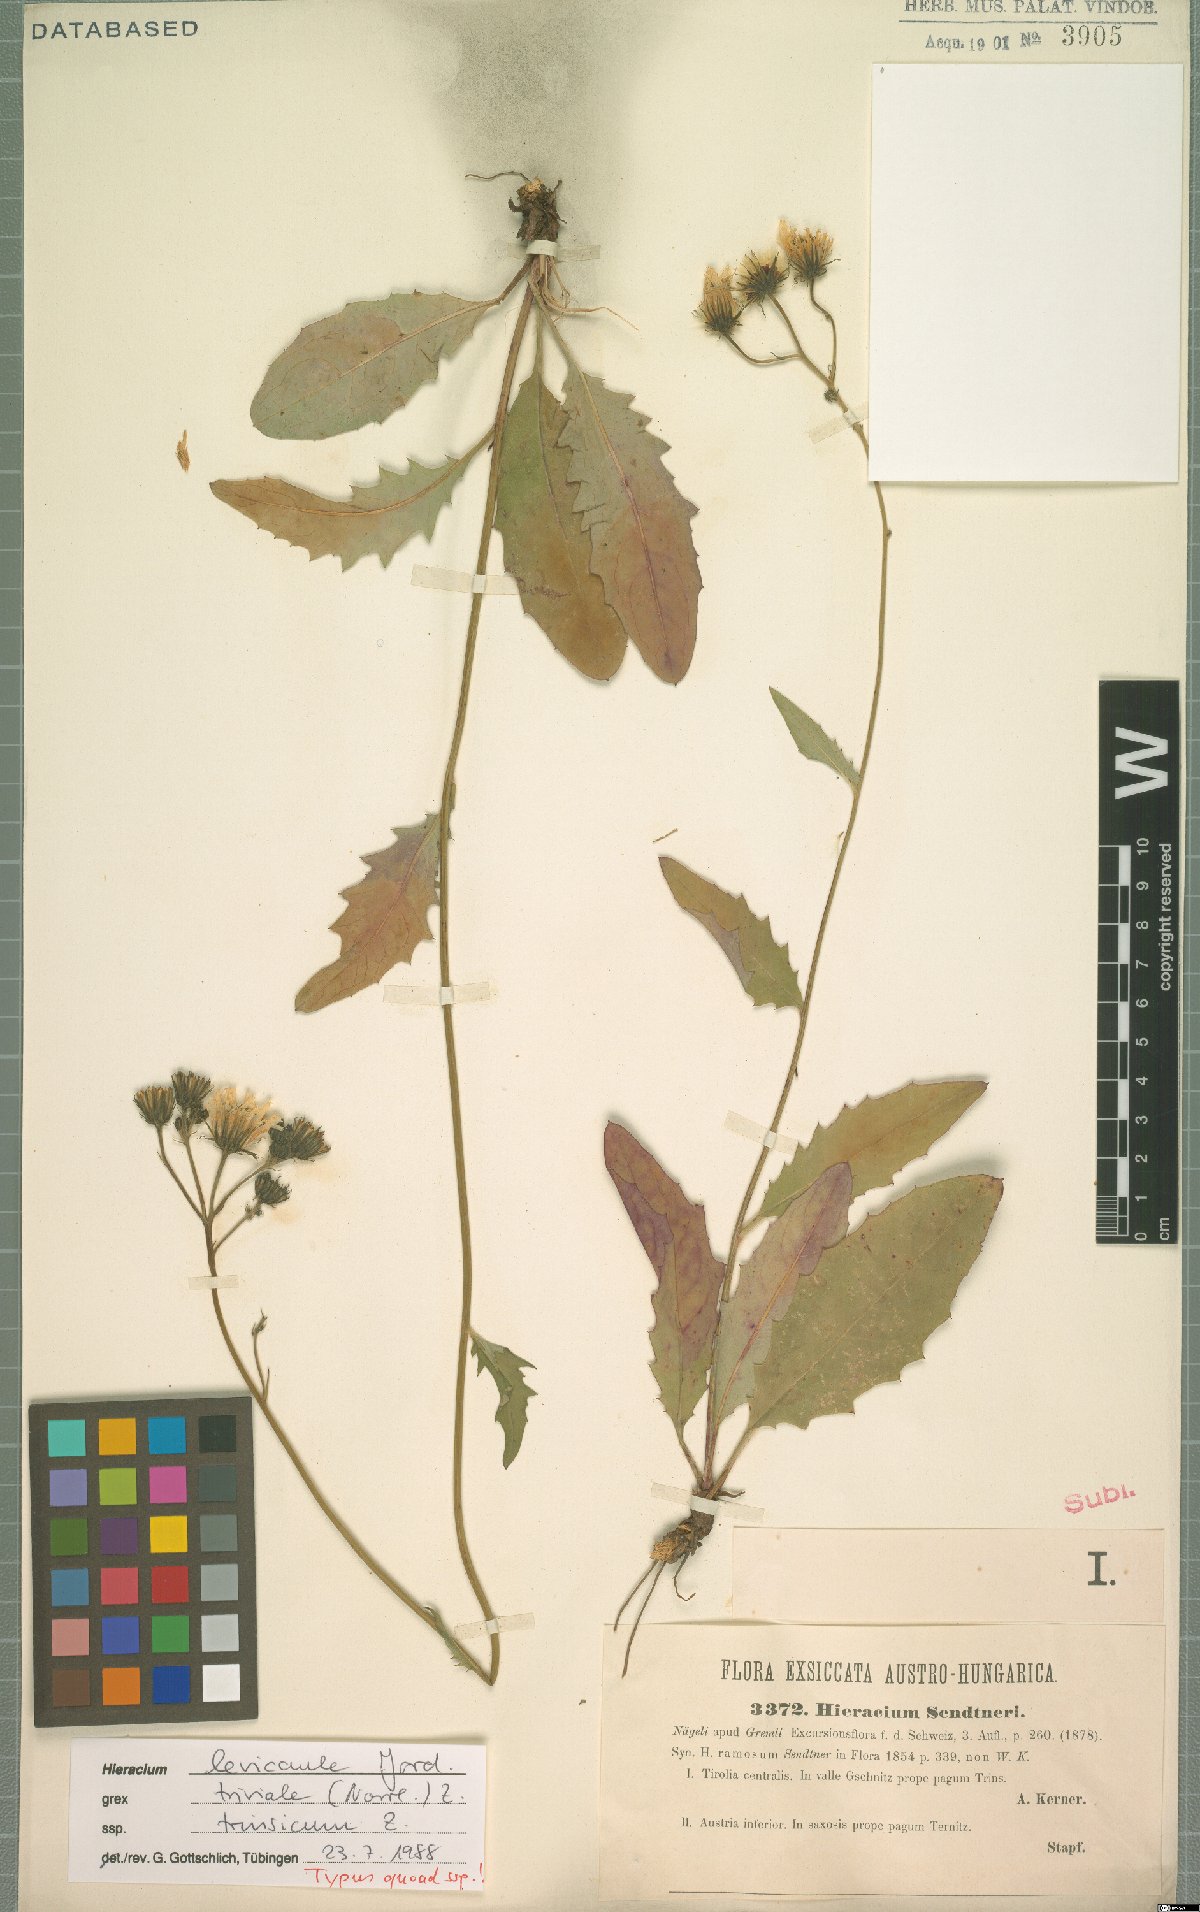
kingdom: Plantae
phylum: Tracheophyta
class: Magnoliopsida
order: Asterales
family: Asteraceae
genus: Hieracium
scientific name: Hieracium levicaule
